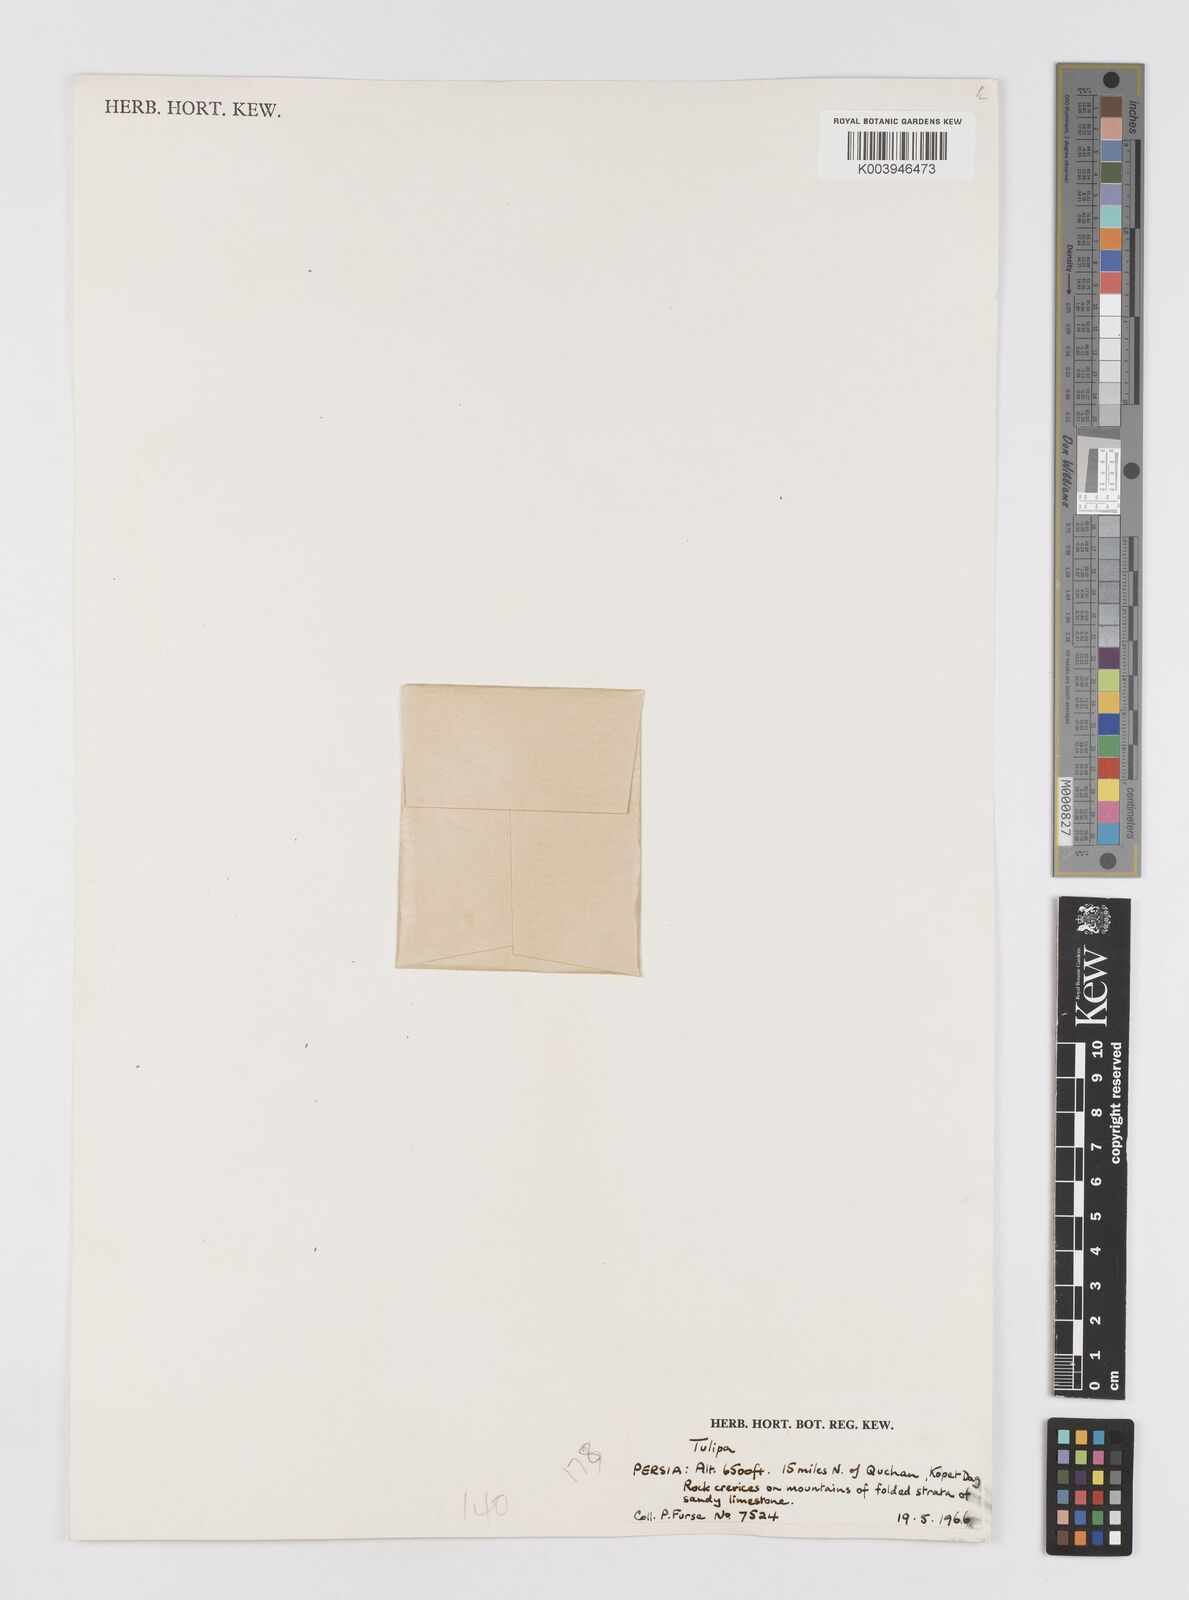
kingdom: Plantae
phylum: Tracheophyta
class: Liliopsida
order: Liliales
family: Liliaceae
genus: Tulipa
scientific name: Tulipa
